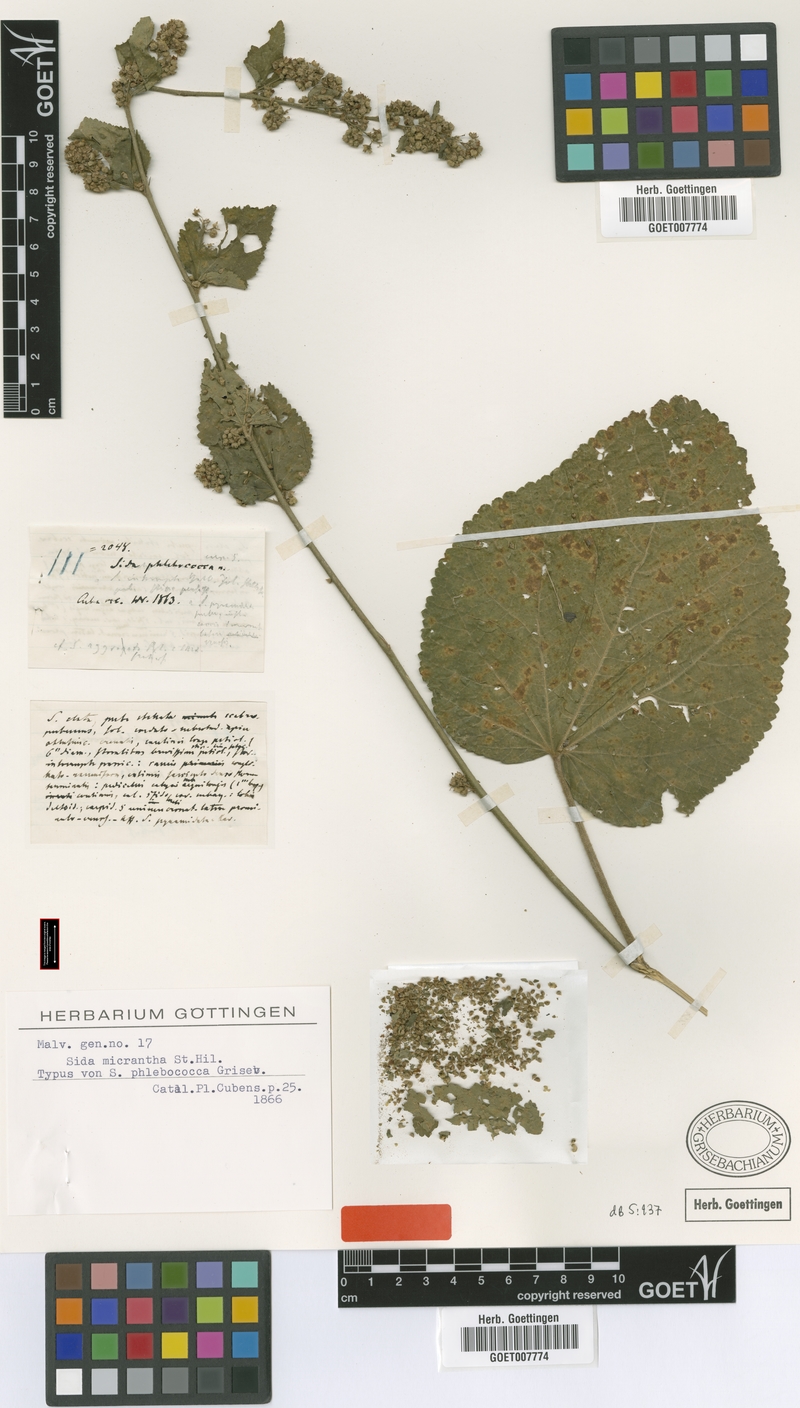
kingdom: Plantae
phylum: Tracheophyta
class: Magnoliopsida
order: Malvales
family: Malvaceae
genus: Sidastrum
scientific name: Sidastrum micranthum
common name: Dainty sandmallow
